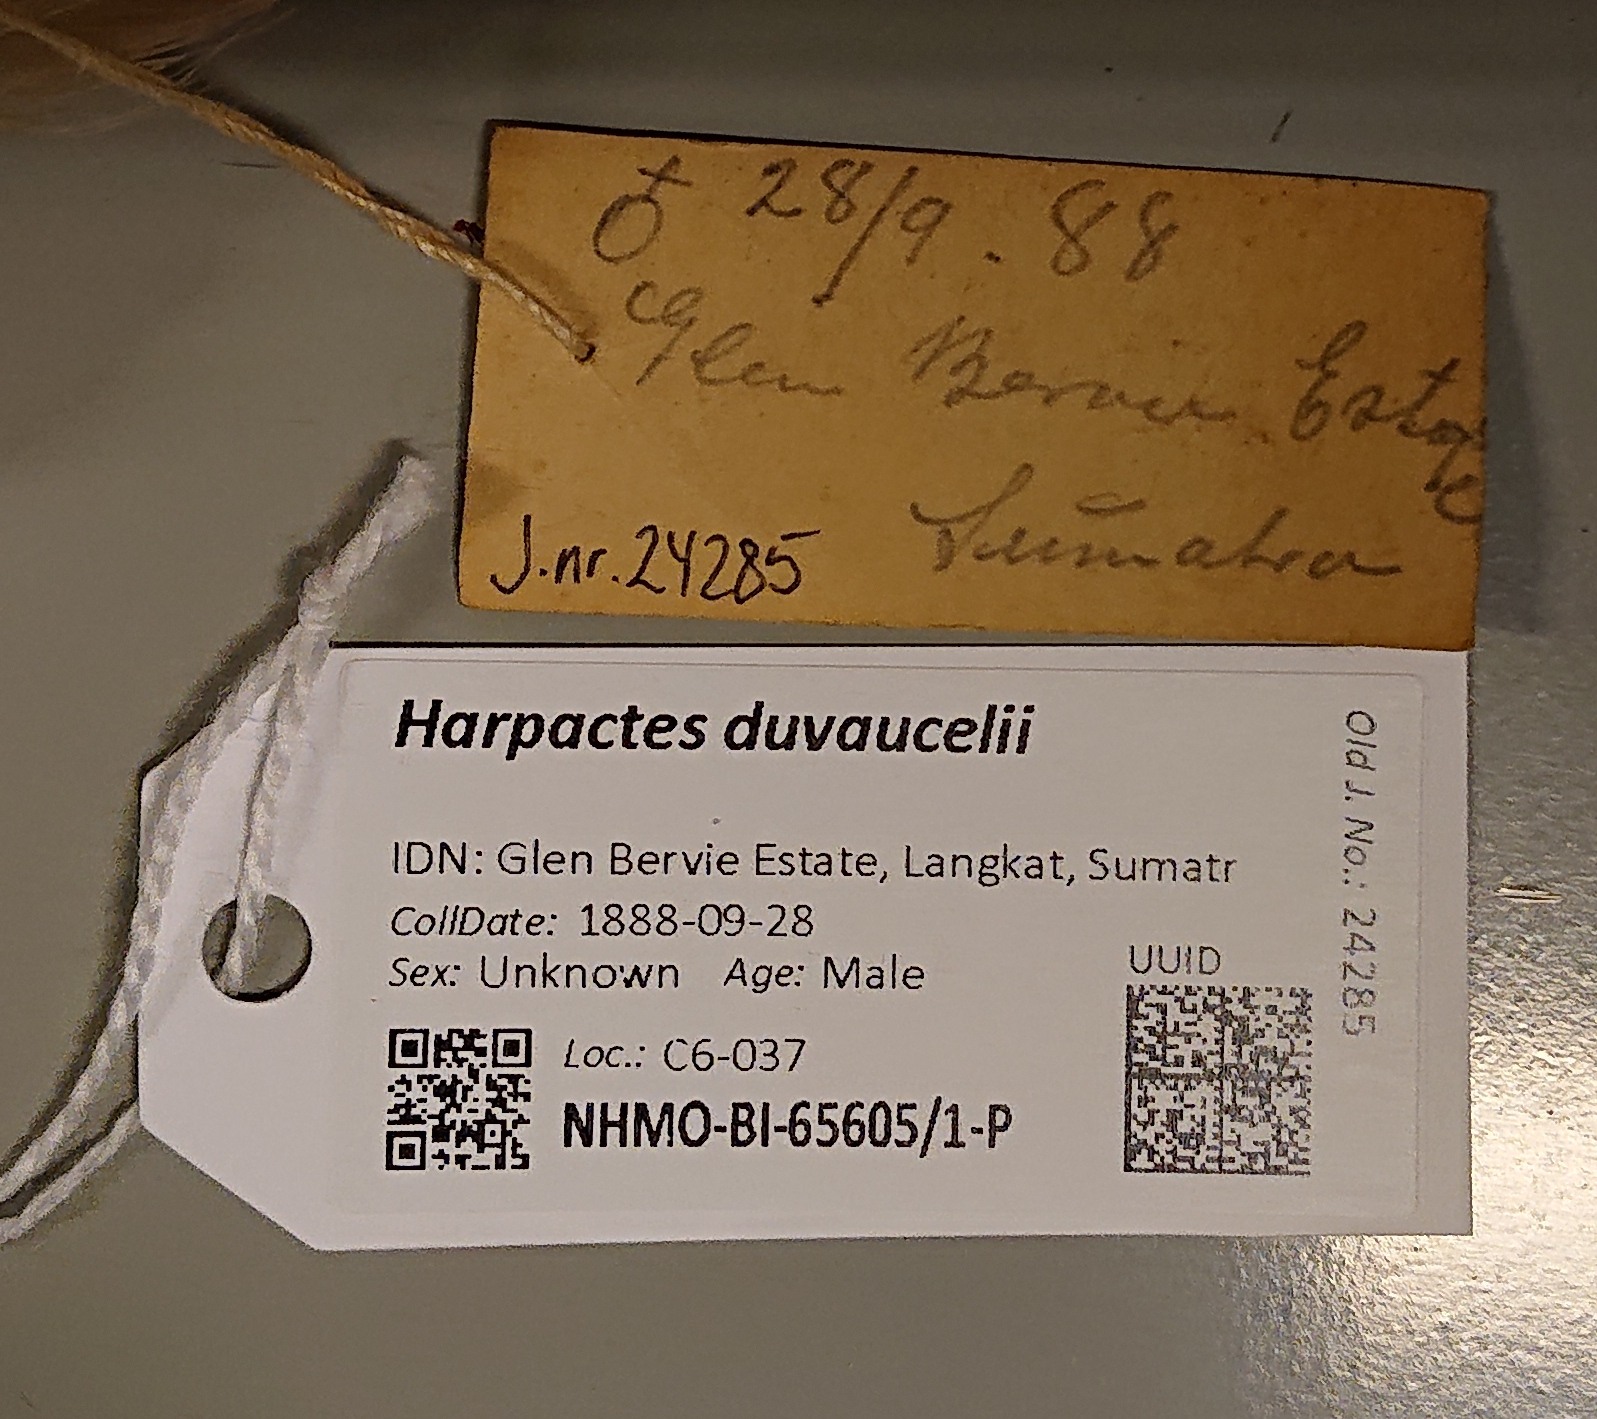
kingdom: Animalia
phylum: Chordata
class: Aves
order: Trogoniformes
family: Trogonidae
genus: Harpactes
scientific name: Harpactes duvaucelii
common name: Scarlet-rumped trogon
